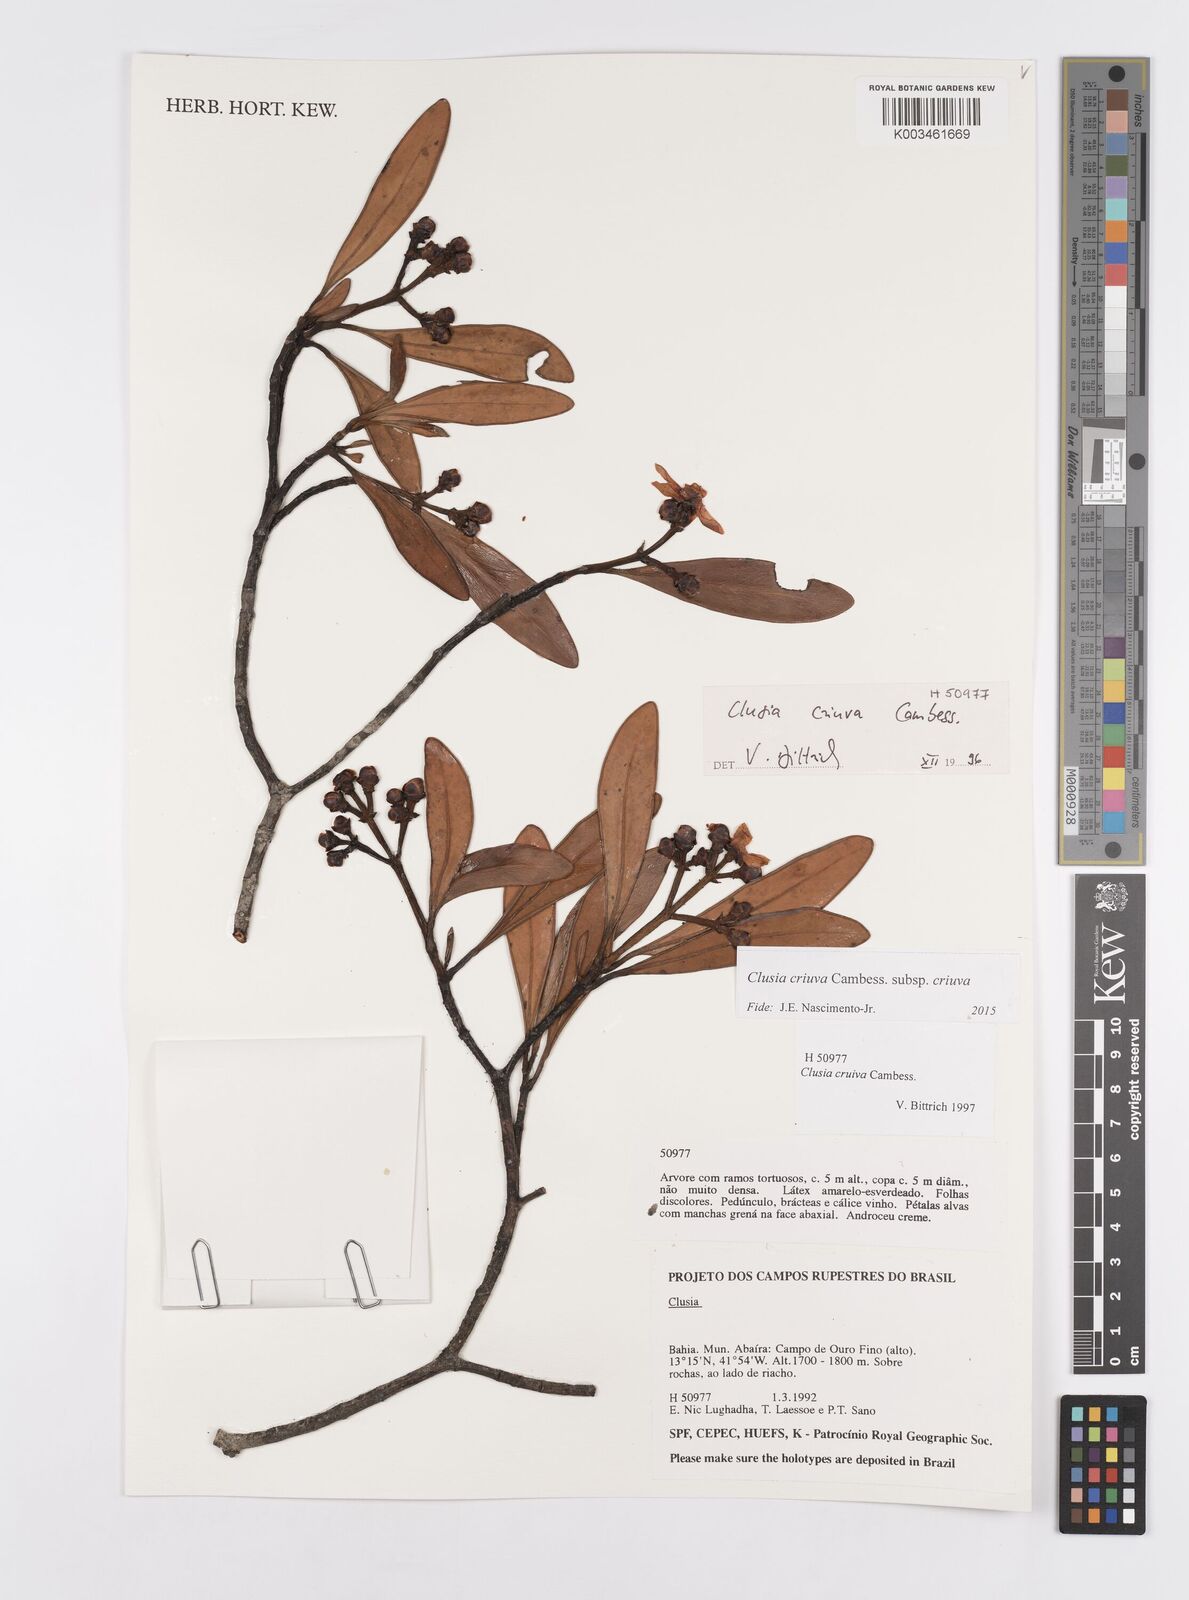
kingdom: Plantae
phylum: Tracheophyta
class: Magnoliopsida
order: Malpighiales
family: Clusiaceae
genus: Clusia
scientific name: Clusia criuva
